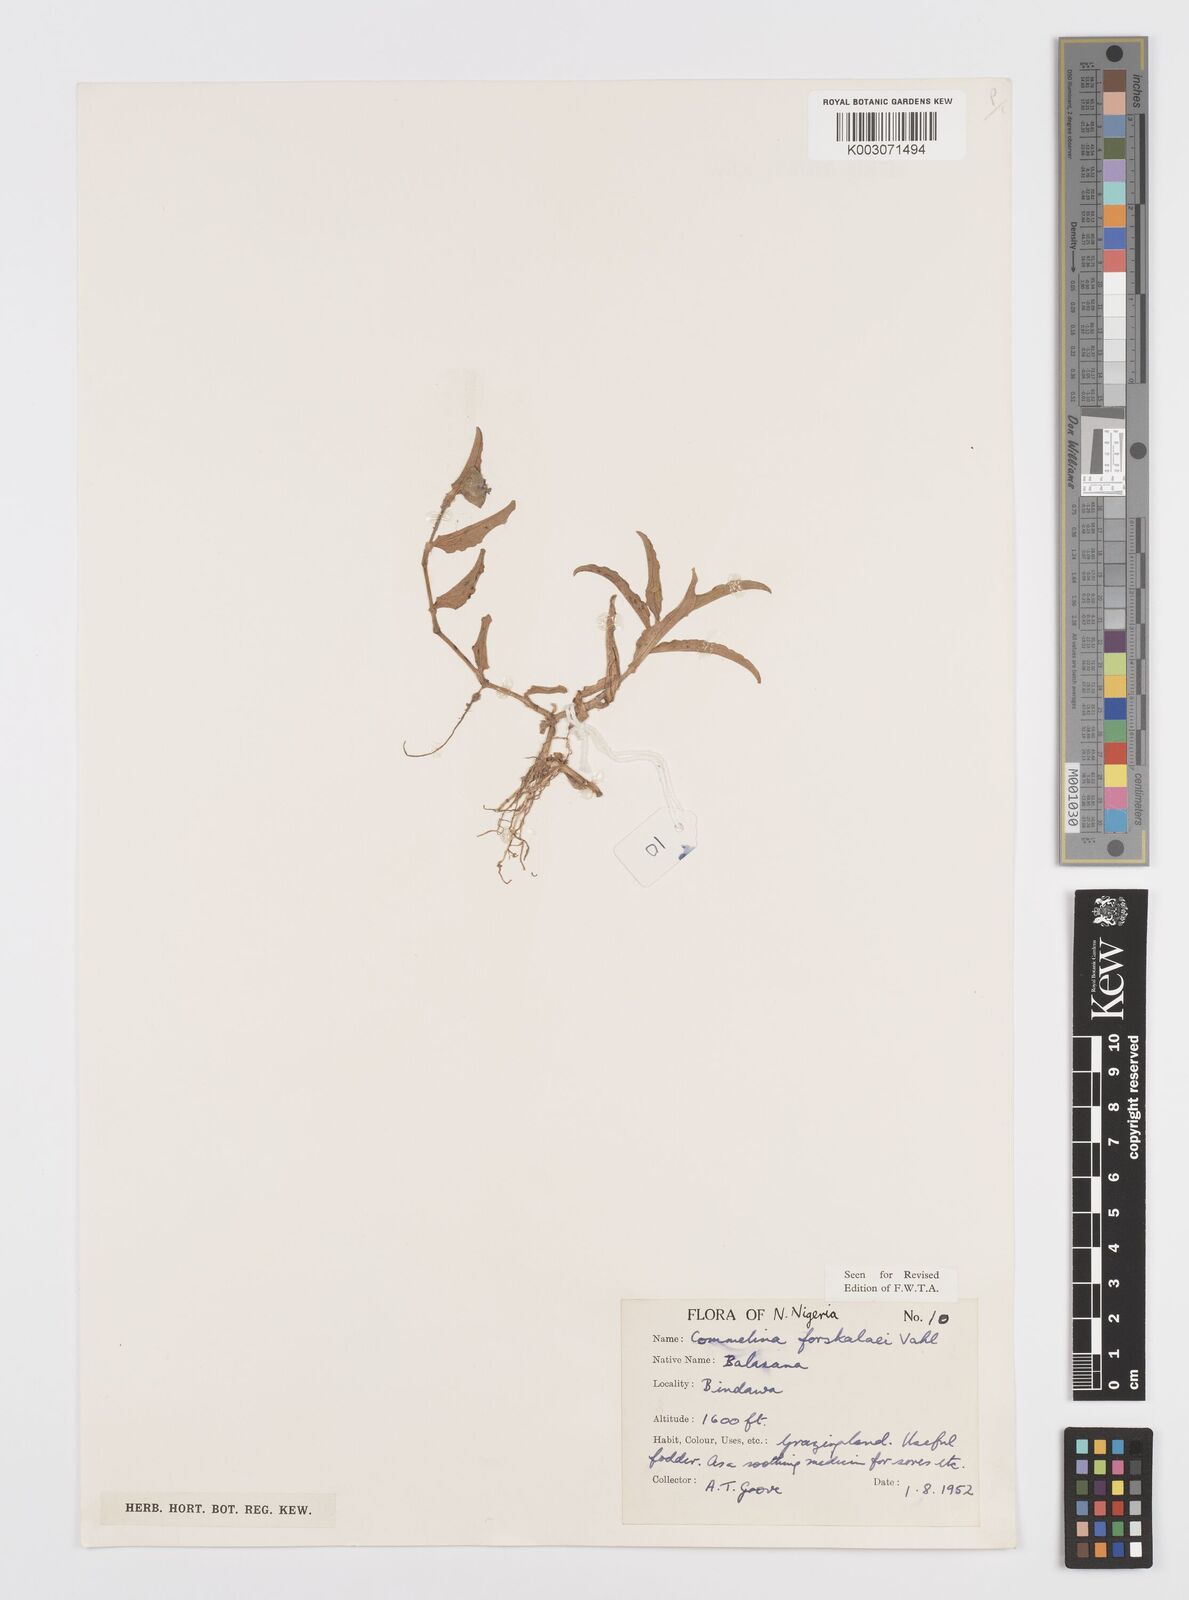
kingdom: Plantae
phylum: Tracheophyta
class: Liliopsida
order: Commelinales
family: Commelinaceae
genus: Commelina
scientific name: Commelina forskaolii
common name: Rat's ear
